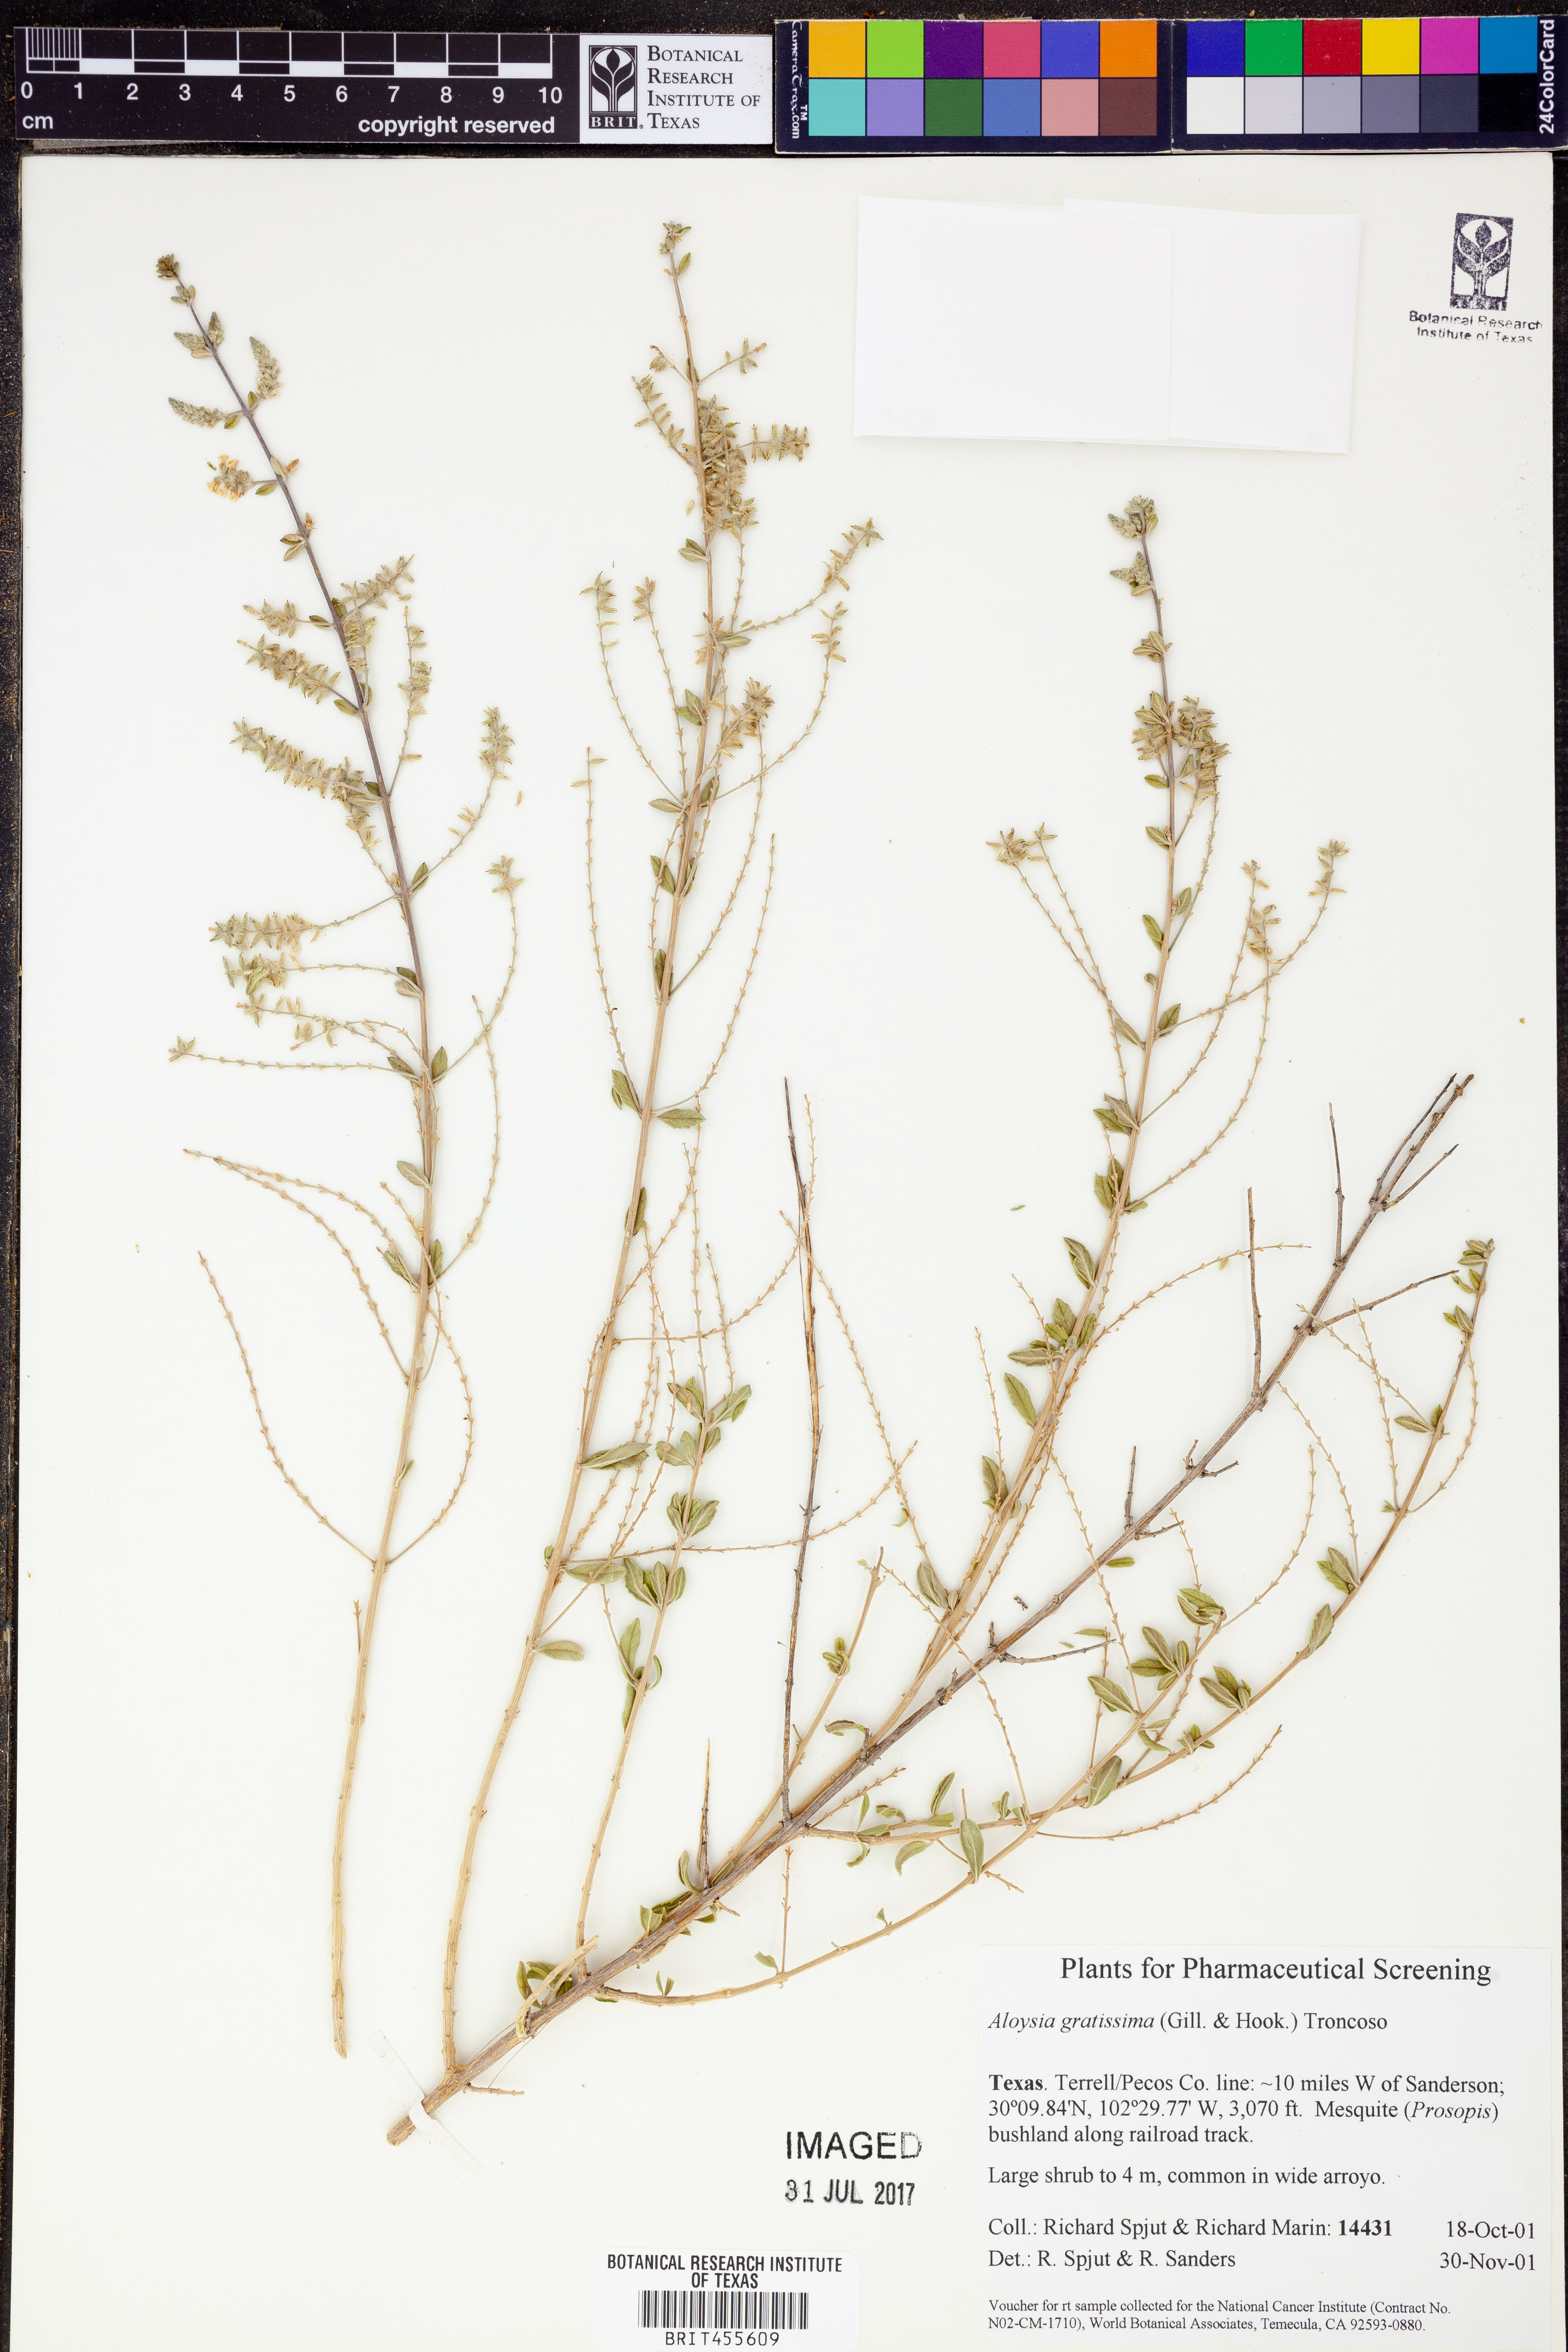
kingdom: Plantae
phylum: Tracheophyta
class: Magnoliopsida
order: Lamiales
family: Verbenaceae
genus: Aloysia
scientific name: Aloysia gratissima
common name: Common bee-brush
